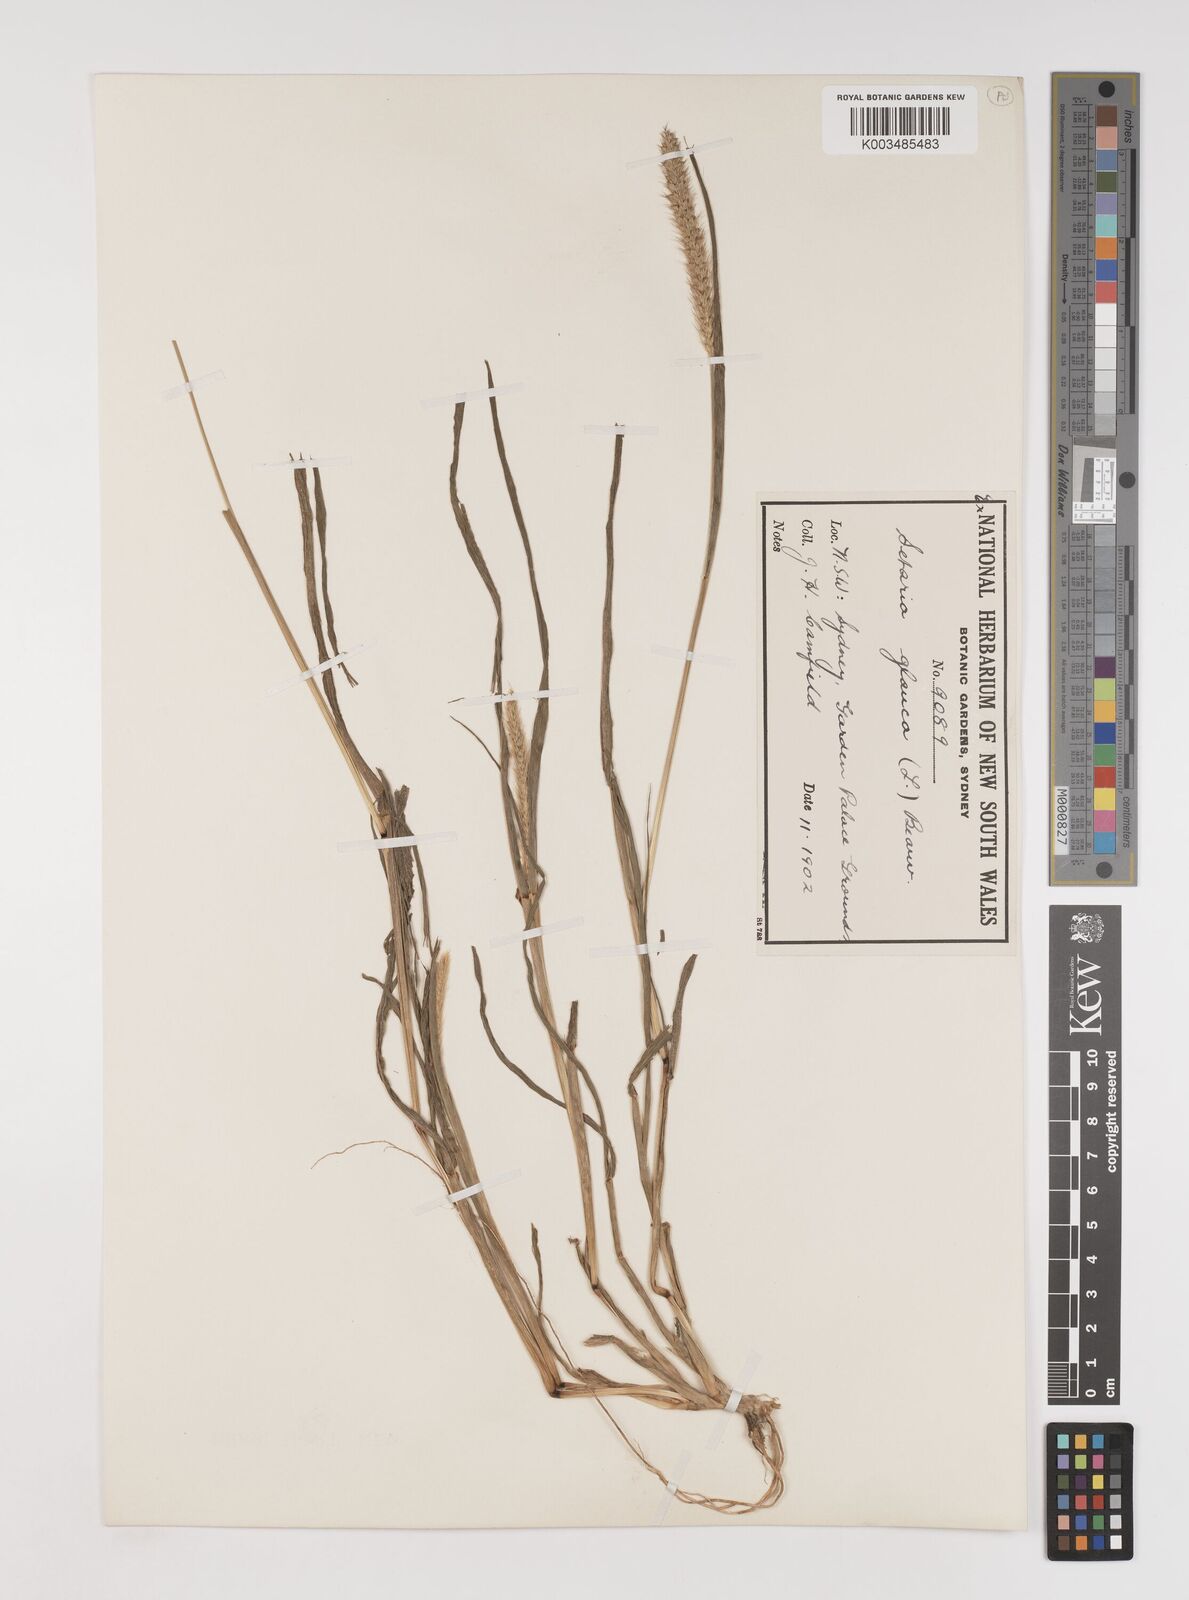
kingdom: Plantae
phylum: Tracheophyta
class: Liliopsida
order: Poales
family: Poaceae
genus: Setaria
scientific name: Setaria pumila
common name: Yellow bristle-grass
